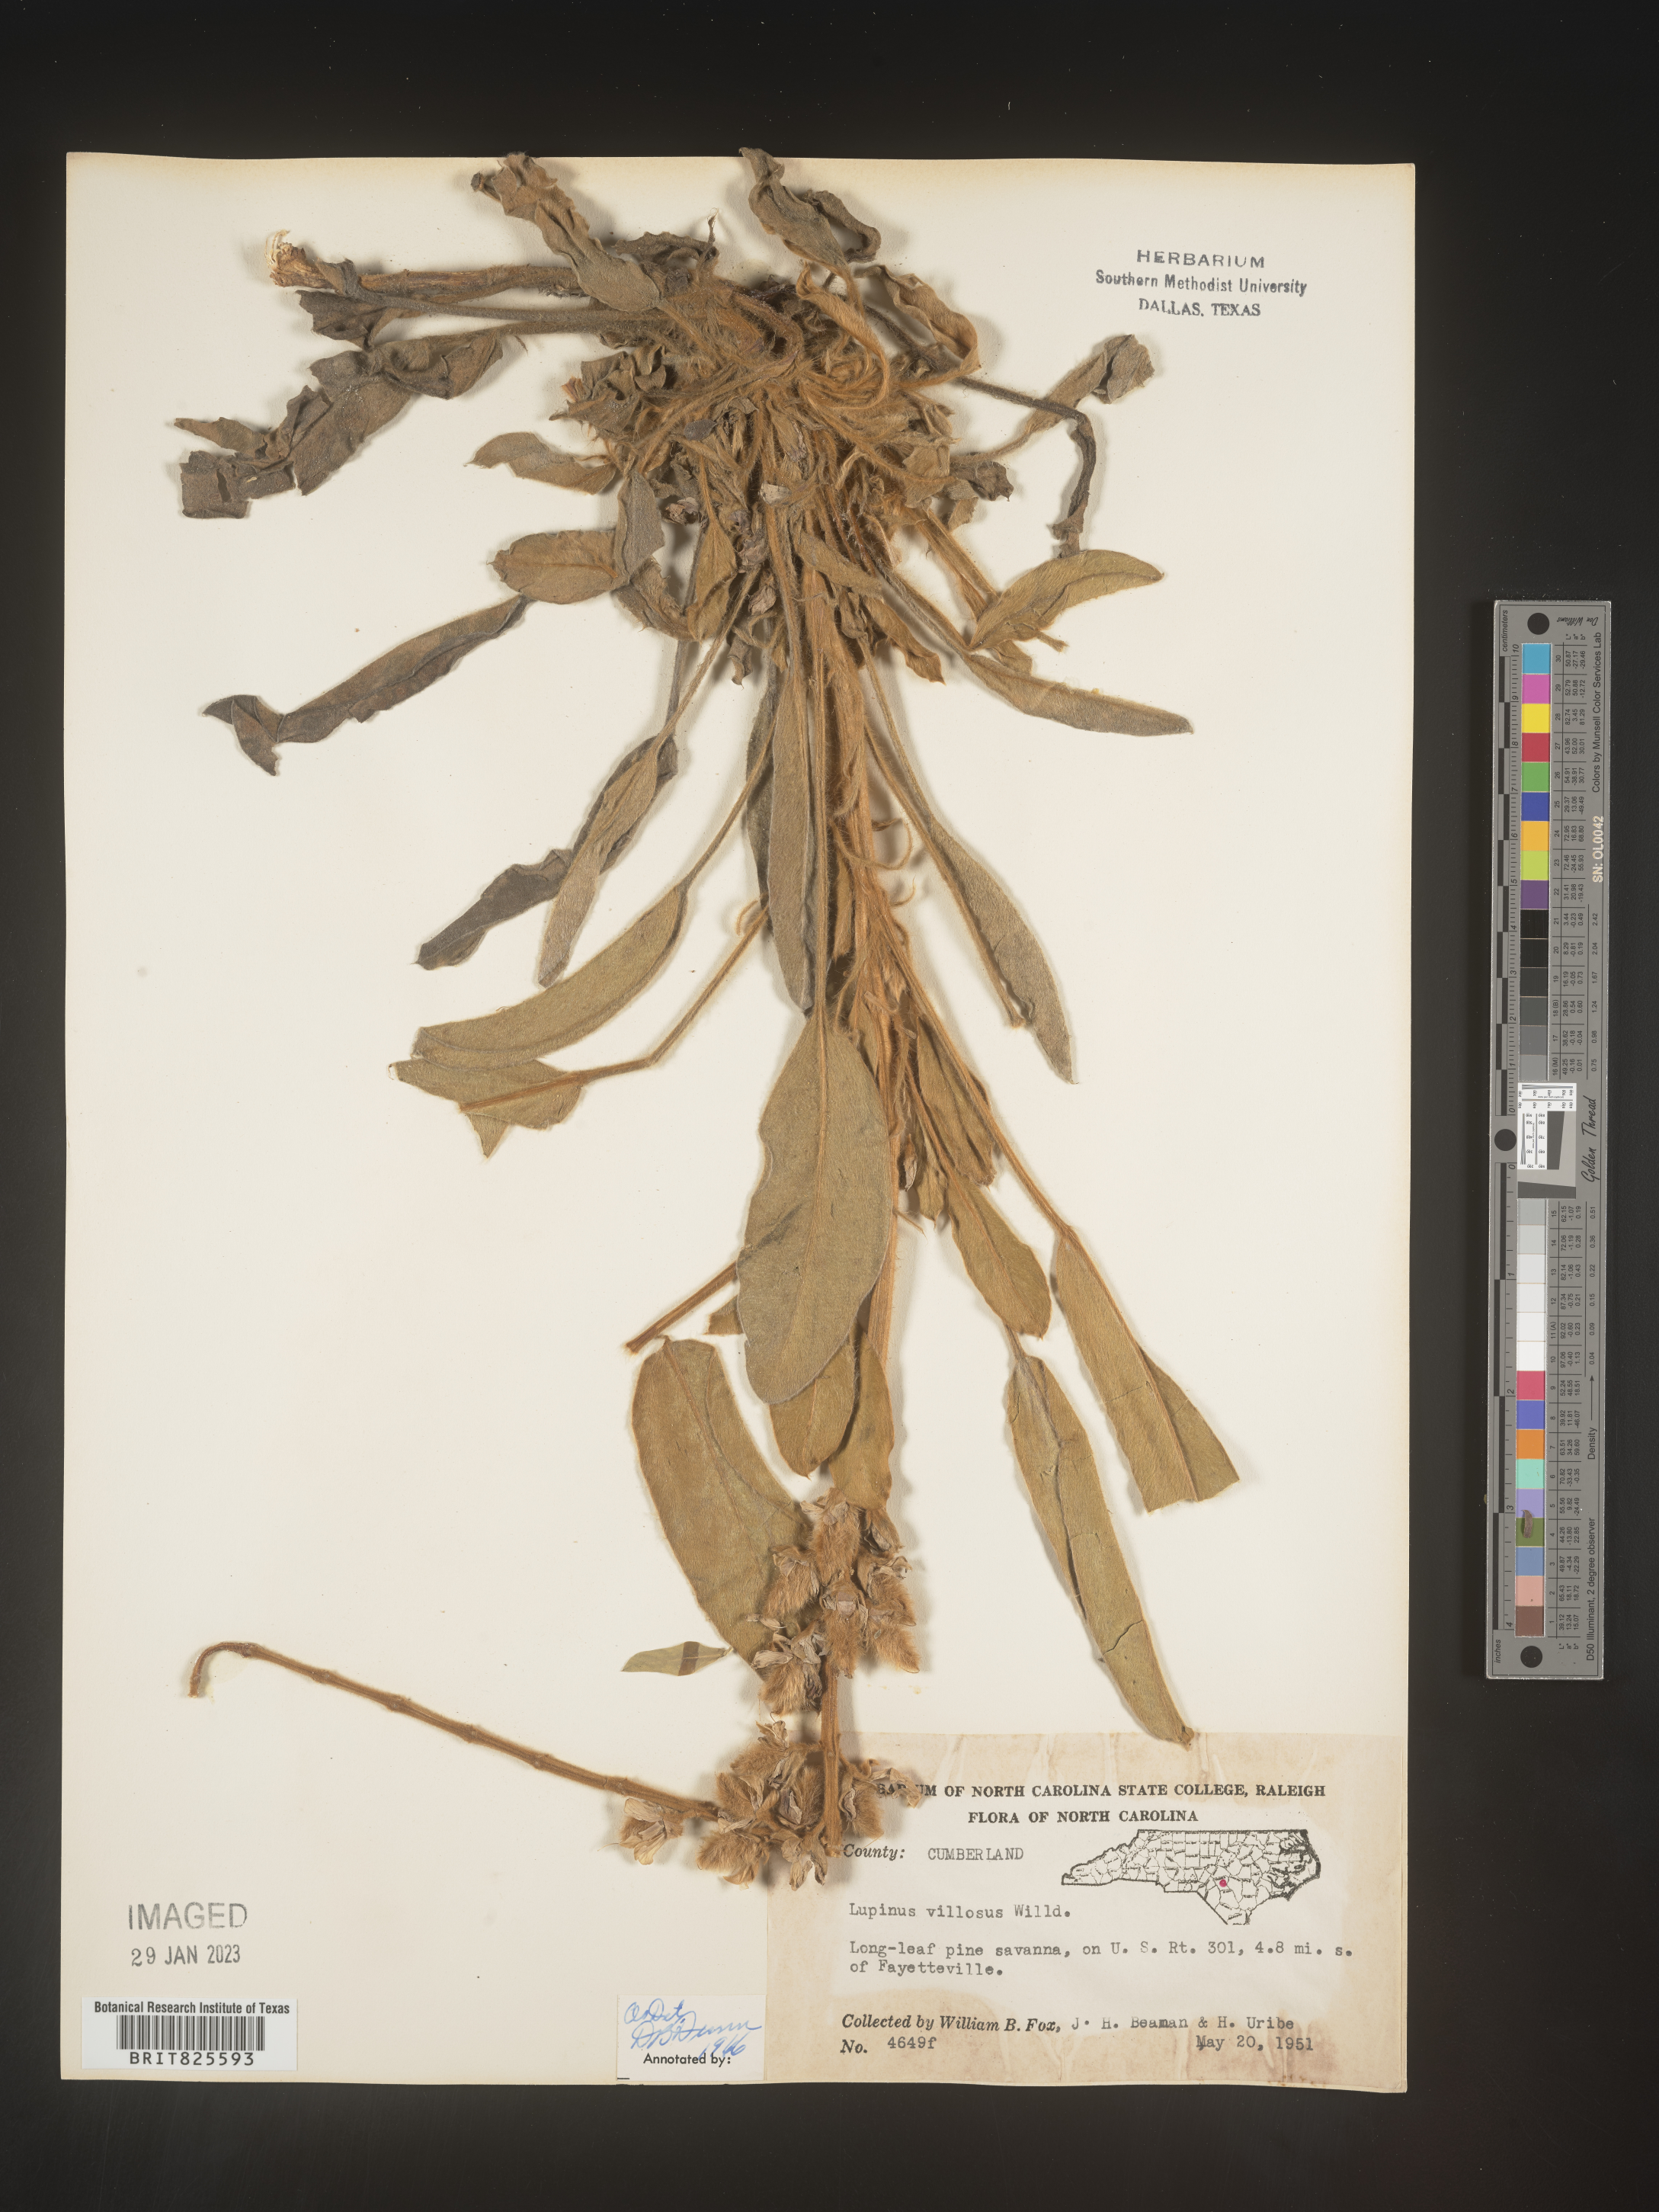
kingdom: Plantae
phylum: Tracheophyta
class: Magnoliopsida
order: Fabales
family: Fabaceae
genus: Lupinus
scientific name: Lupinus villosus
